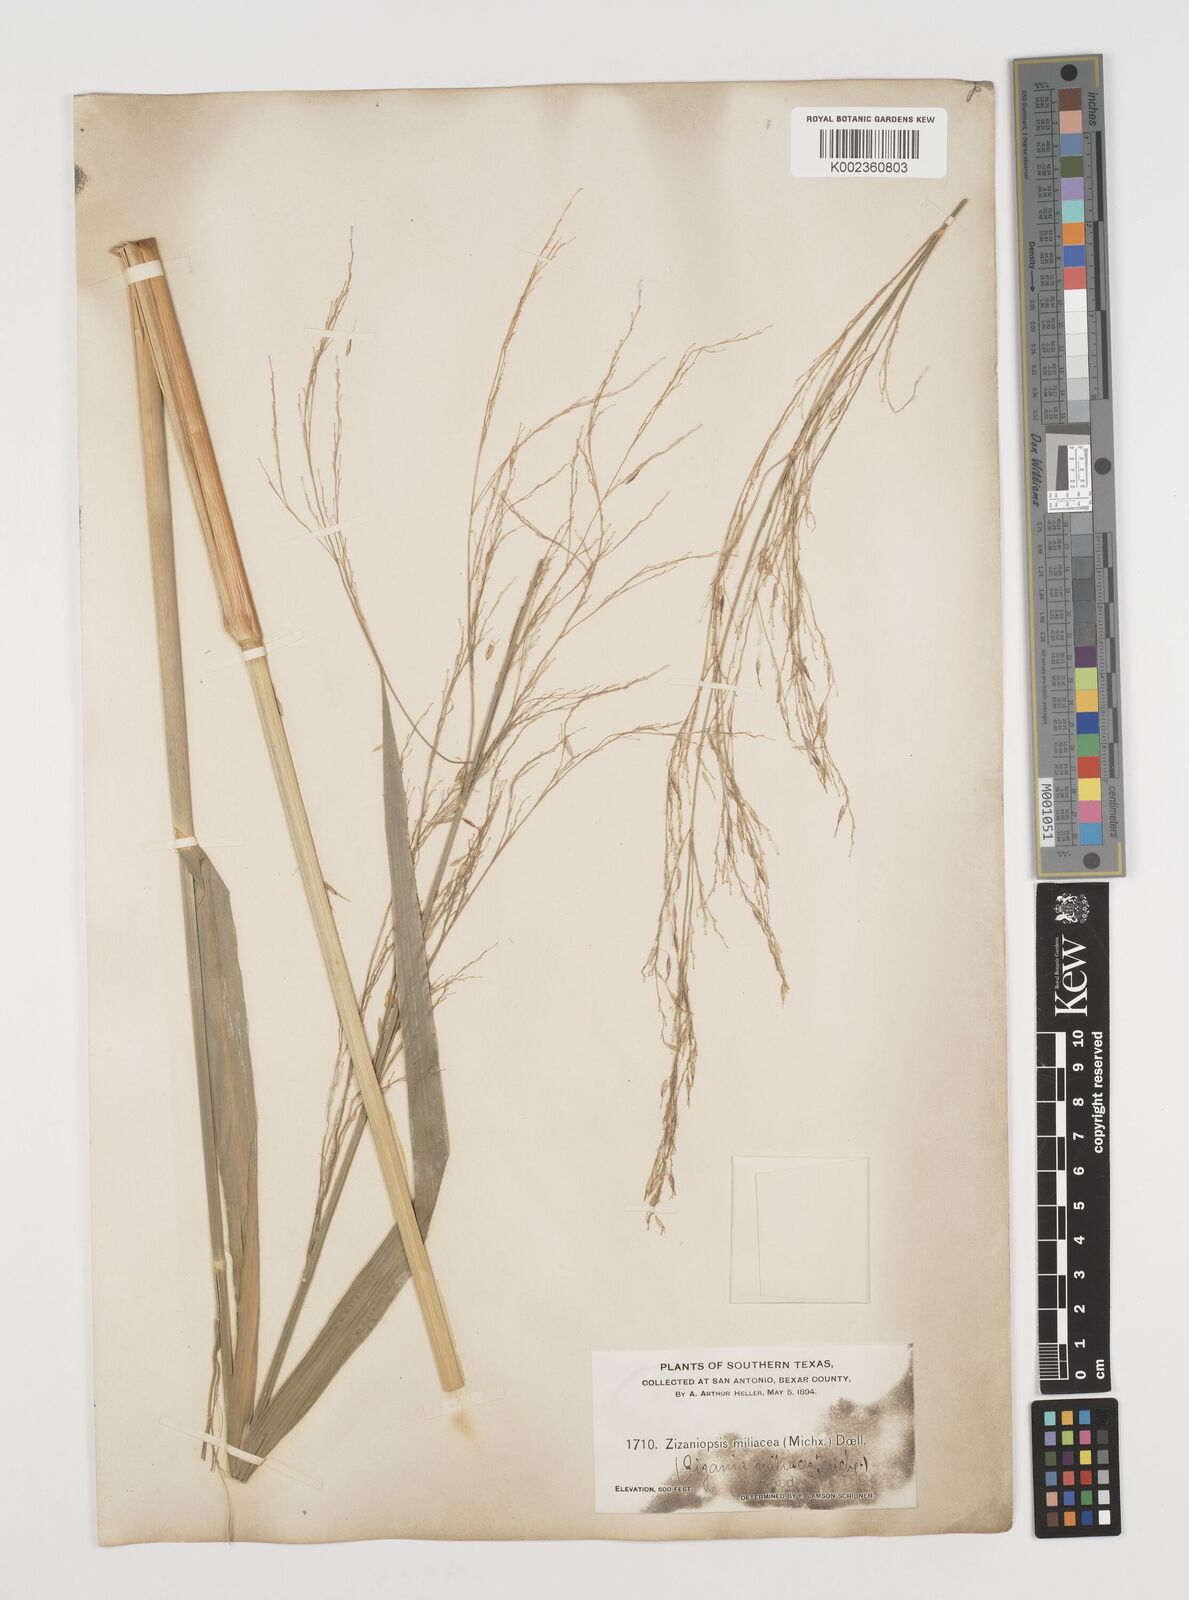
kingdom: Plantae
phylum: Tracheophyta
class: Liliopsida
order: Poales
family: Poaceae
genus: Zizaniopsis
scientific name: Zizaniopsis miliacea
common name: Giant-cutgrass
